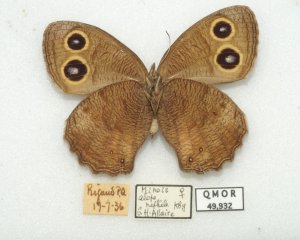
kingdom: Animalia
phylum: Arthropoda
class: Insecta
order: Lepidoptera
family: Nymphalidae
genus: Cercyonis
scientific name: Cercyonis pegala
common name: Common Wood-Nymph
